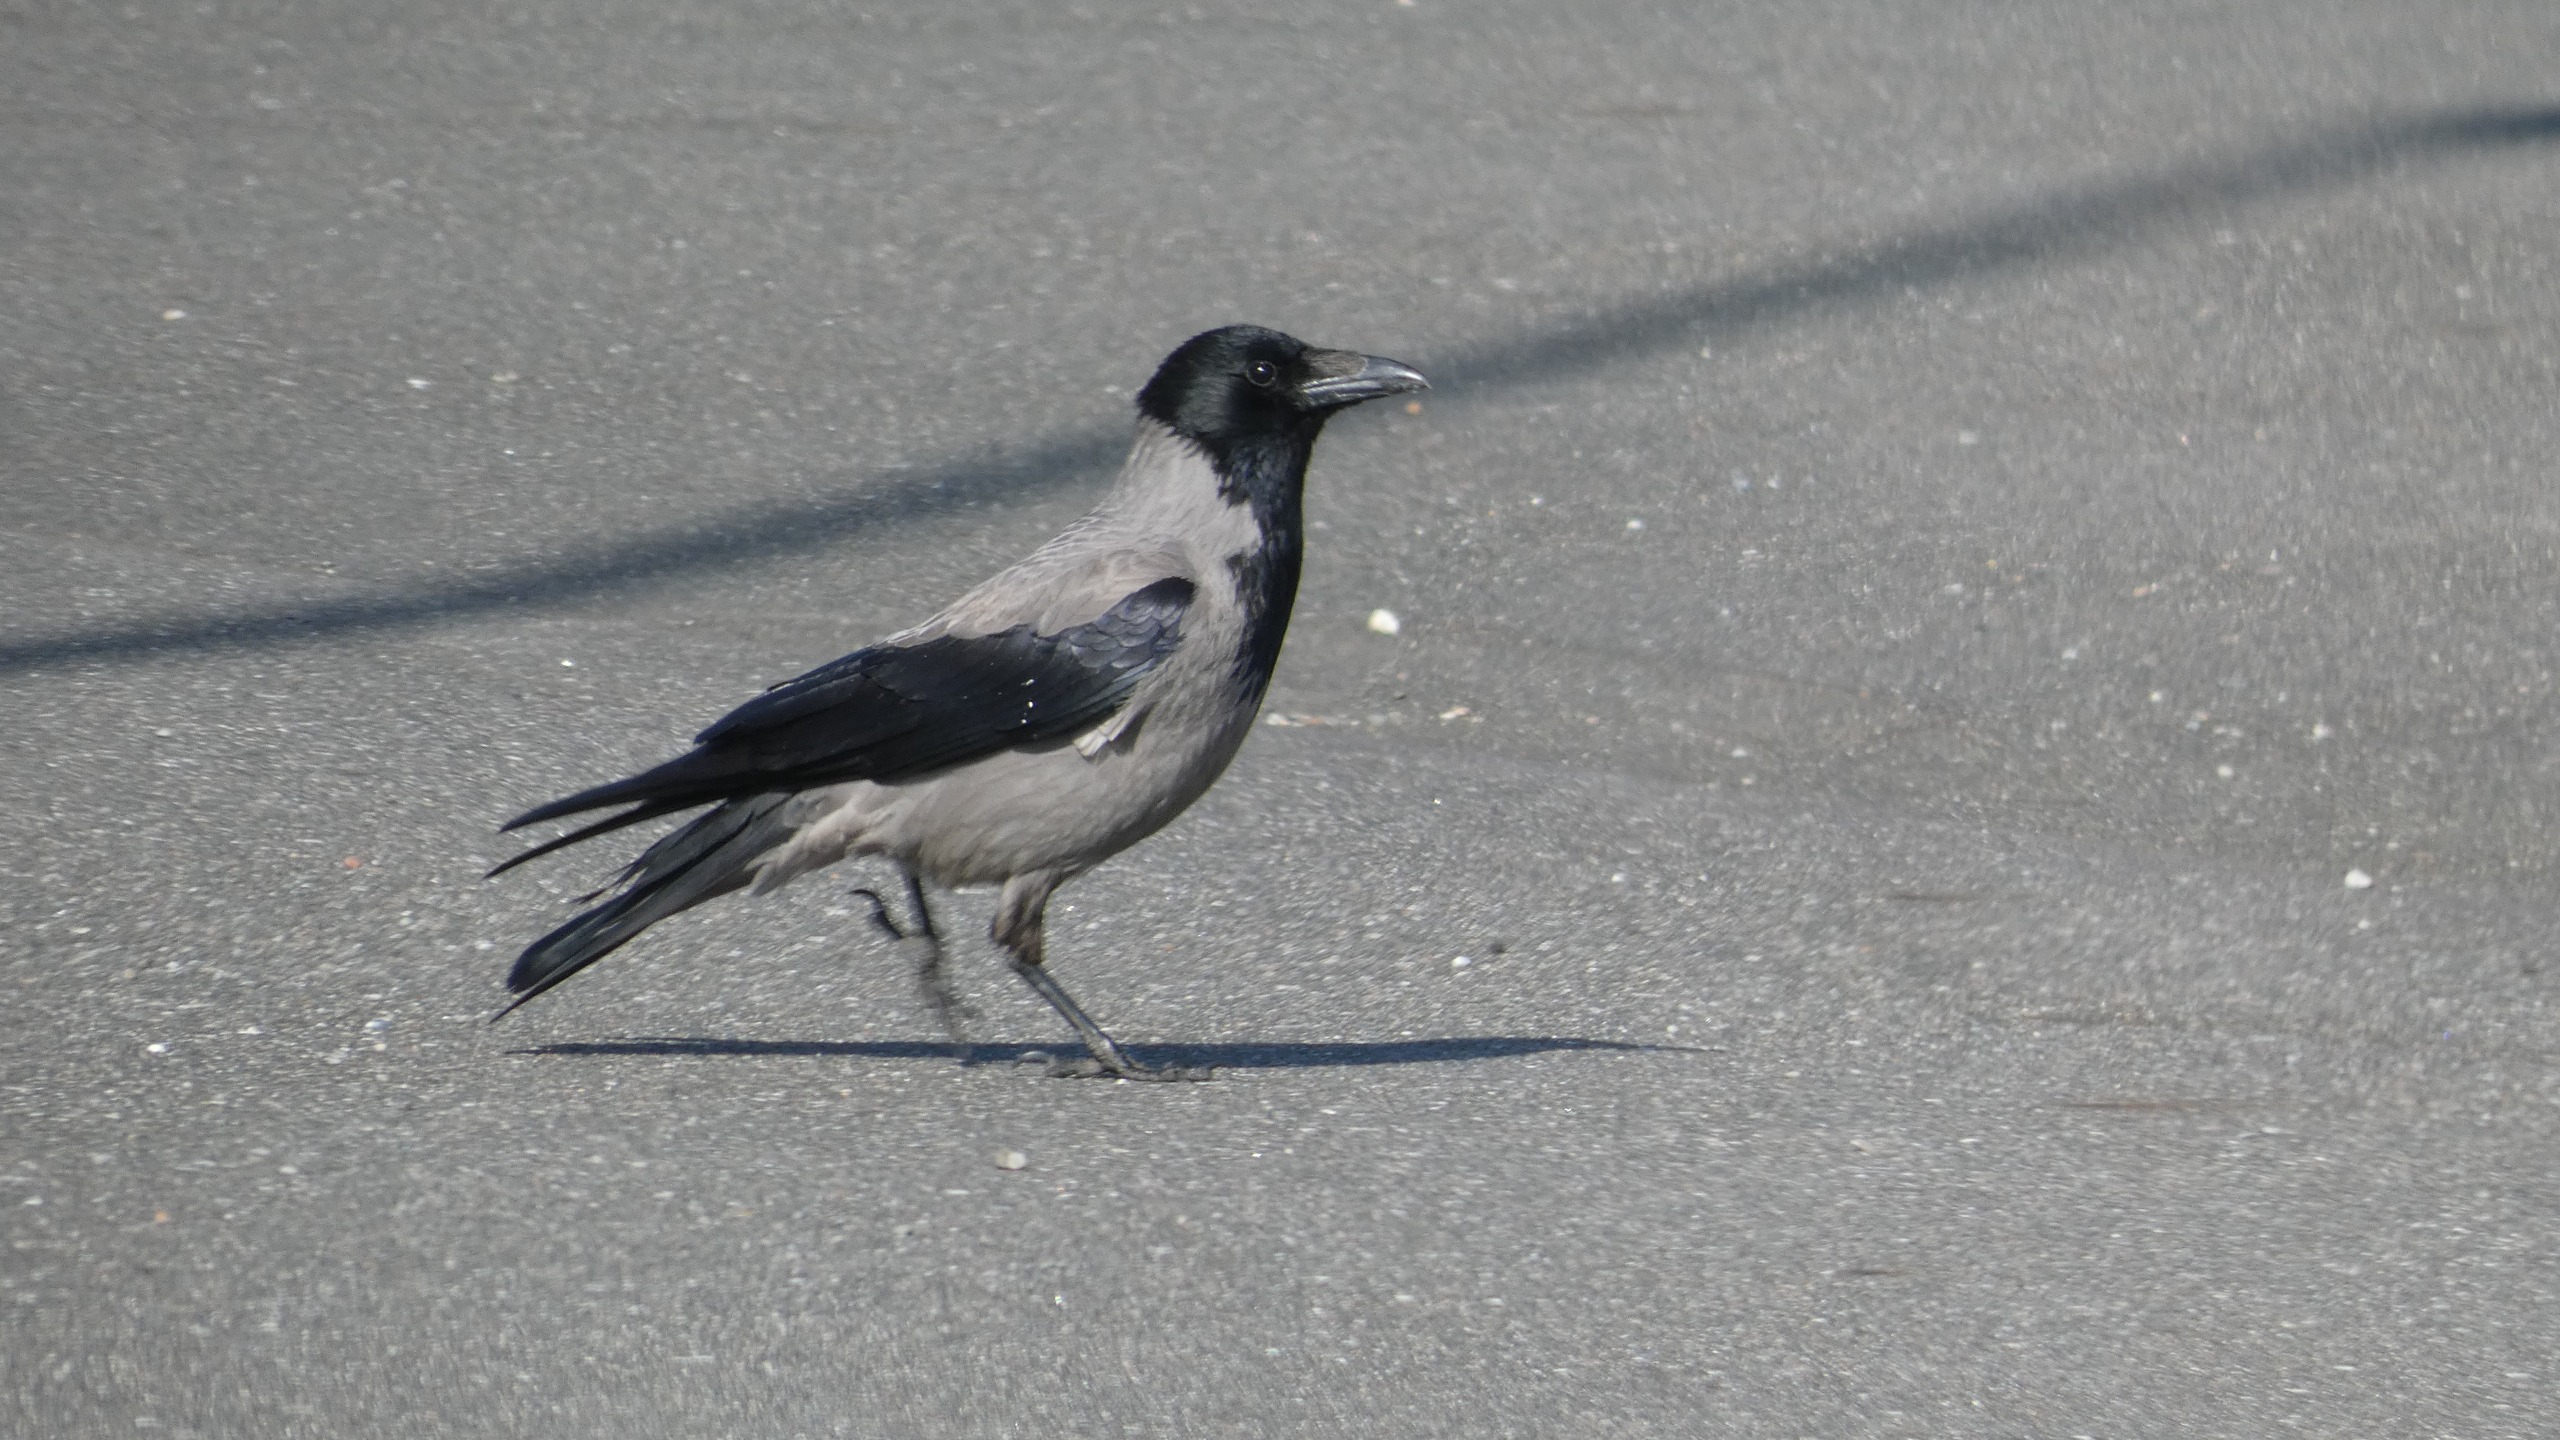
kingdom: Animalia
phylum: Chordata
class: Aves
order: Passeriformes
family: Corvidae
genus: Corvus
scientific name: Corvus cornix
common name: Gråkrage
